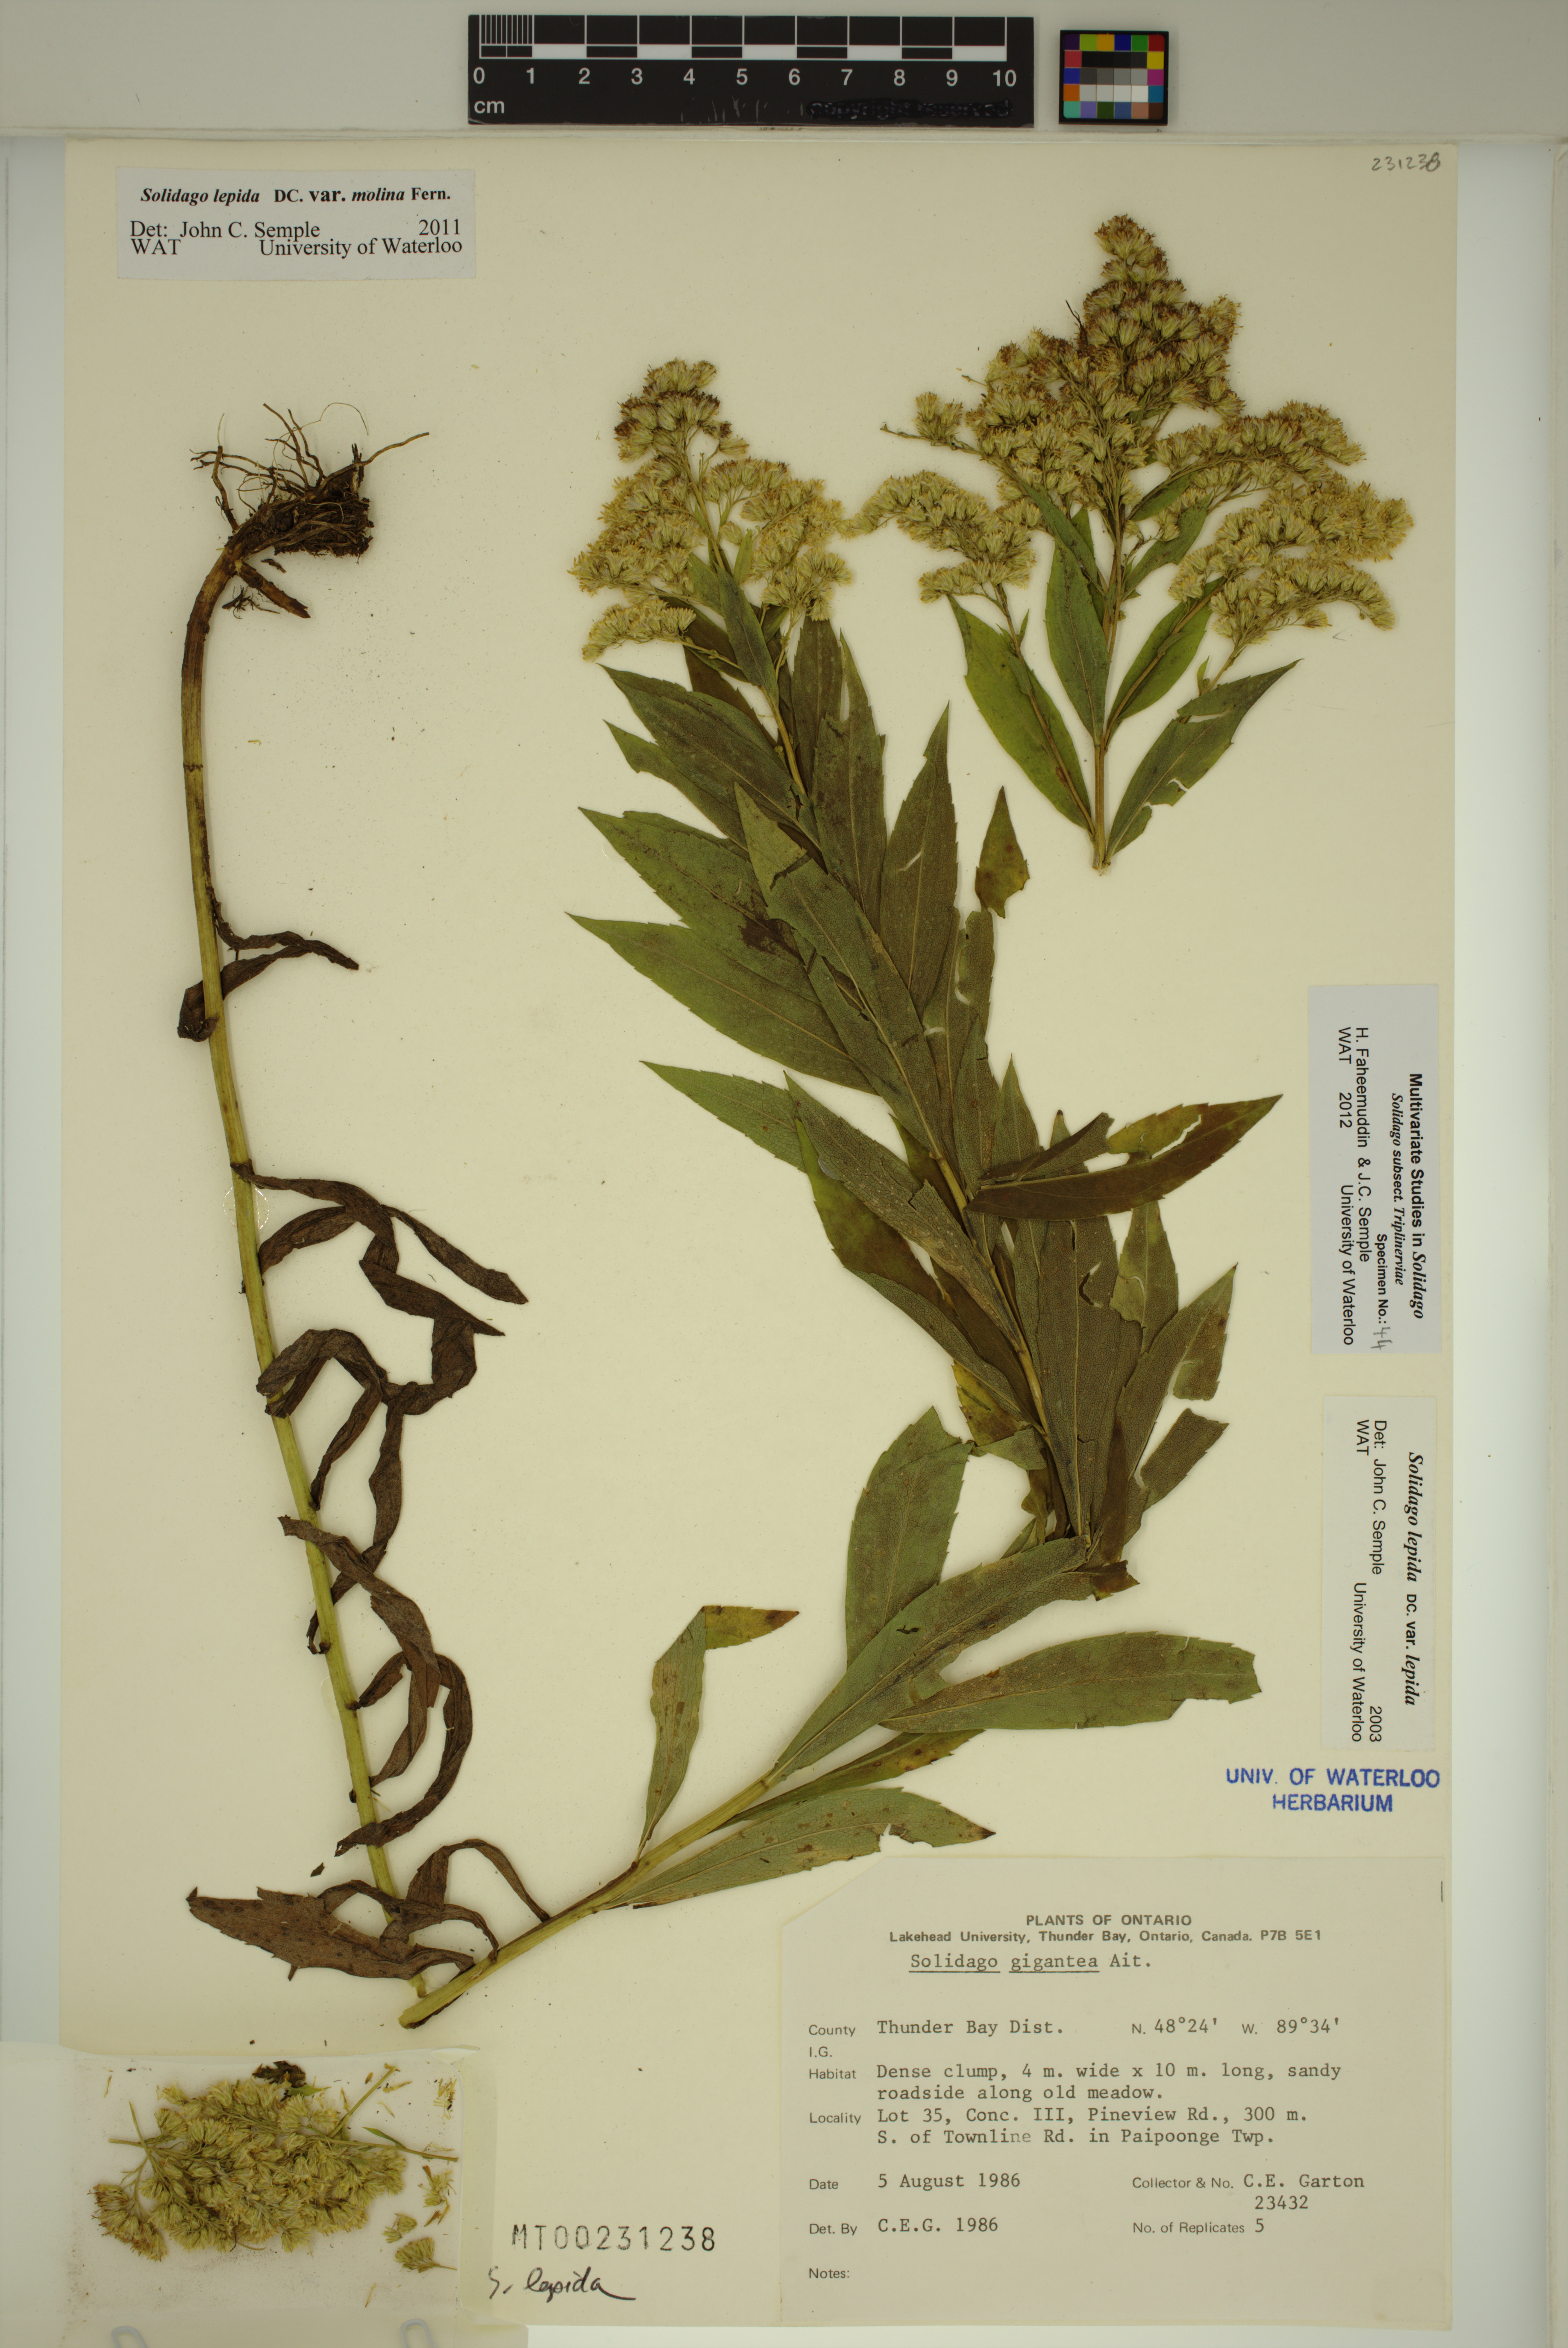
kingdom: Plantae
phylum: Tracheophyta
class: Magnoliopsida
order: Asterales
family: Asteraceae
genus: Solidago
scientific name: Solidago fallax
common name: Big-toothed canada goldenrod
